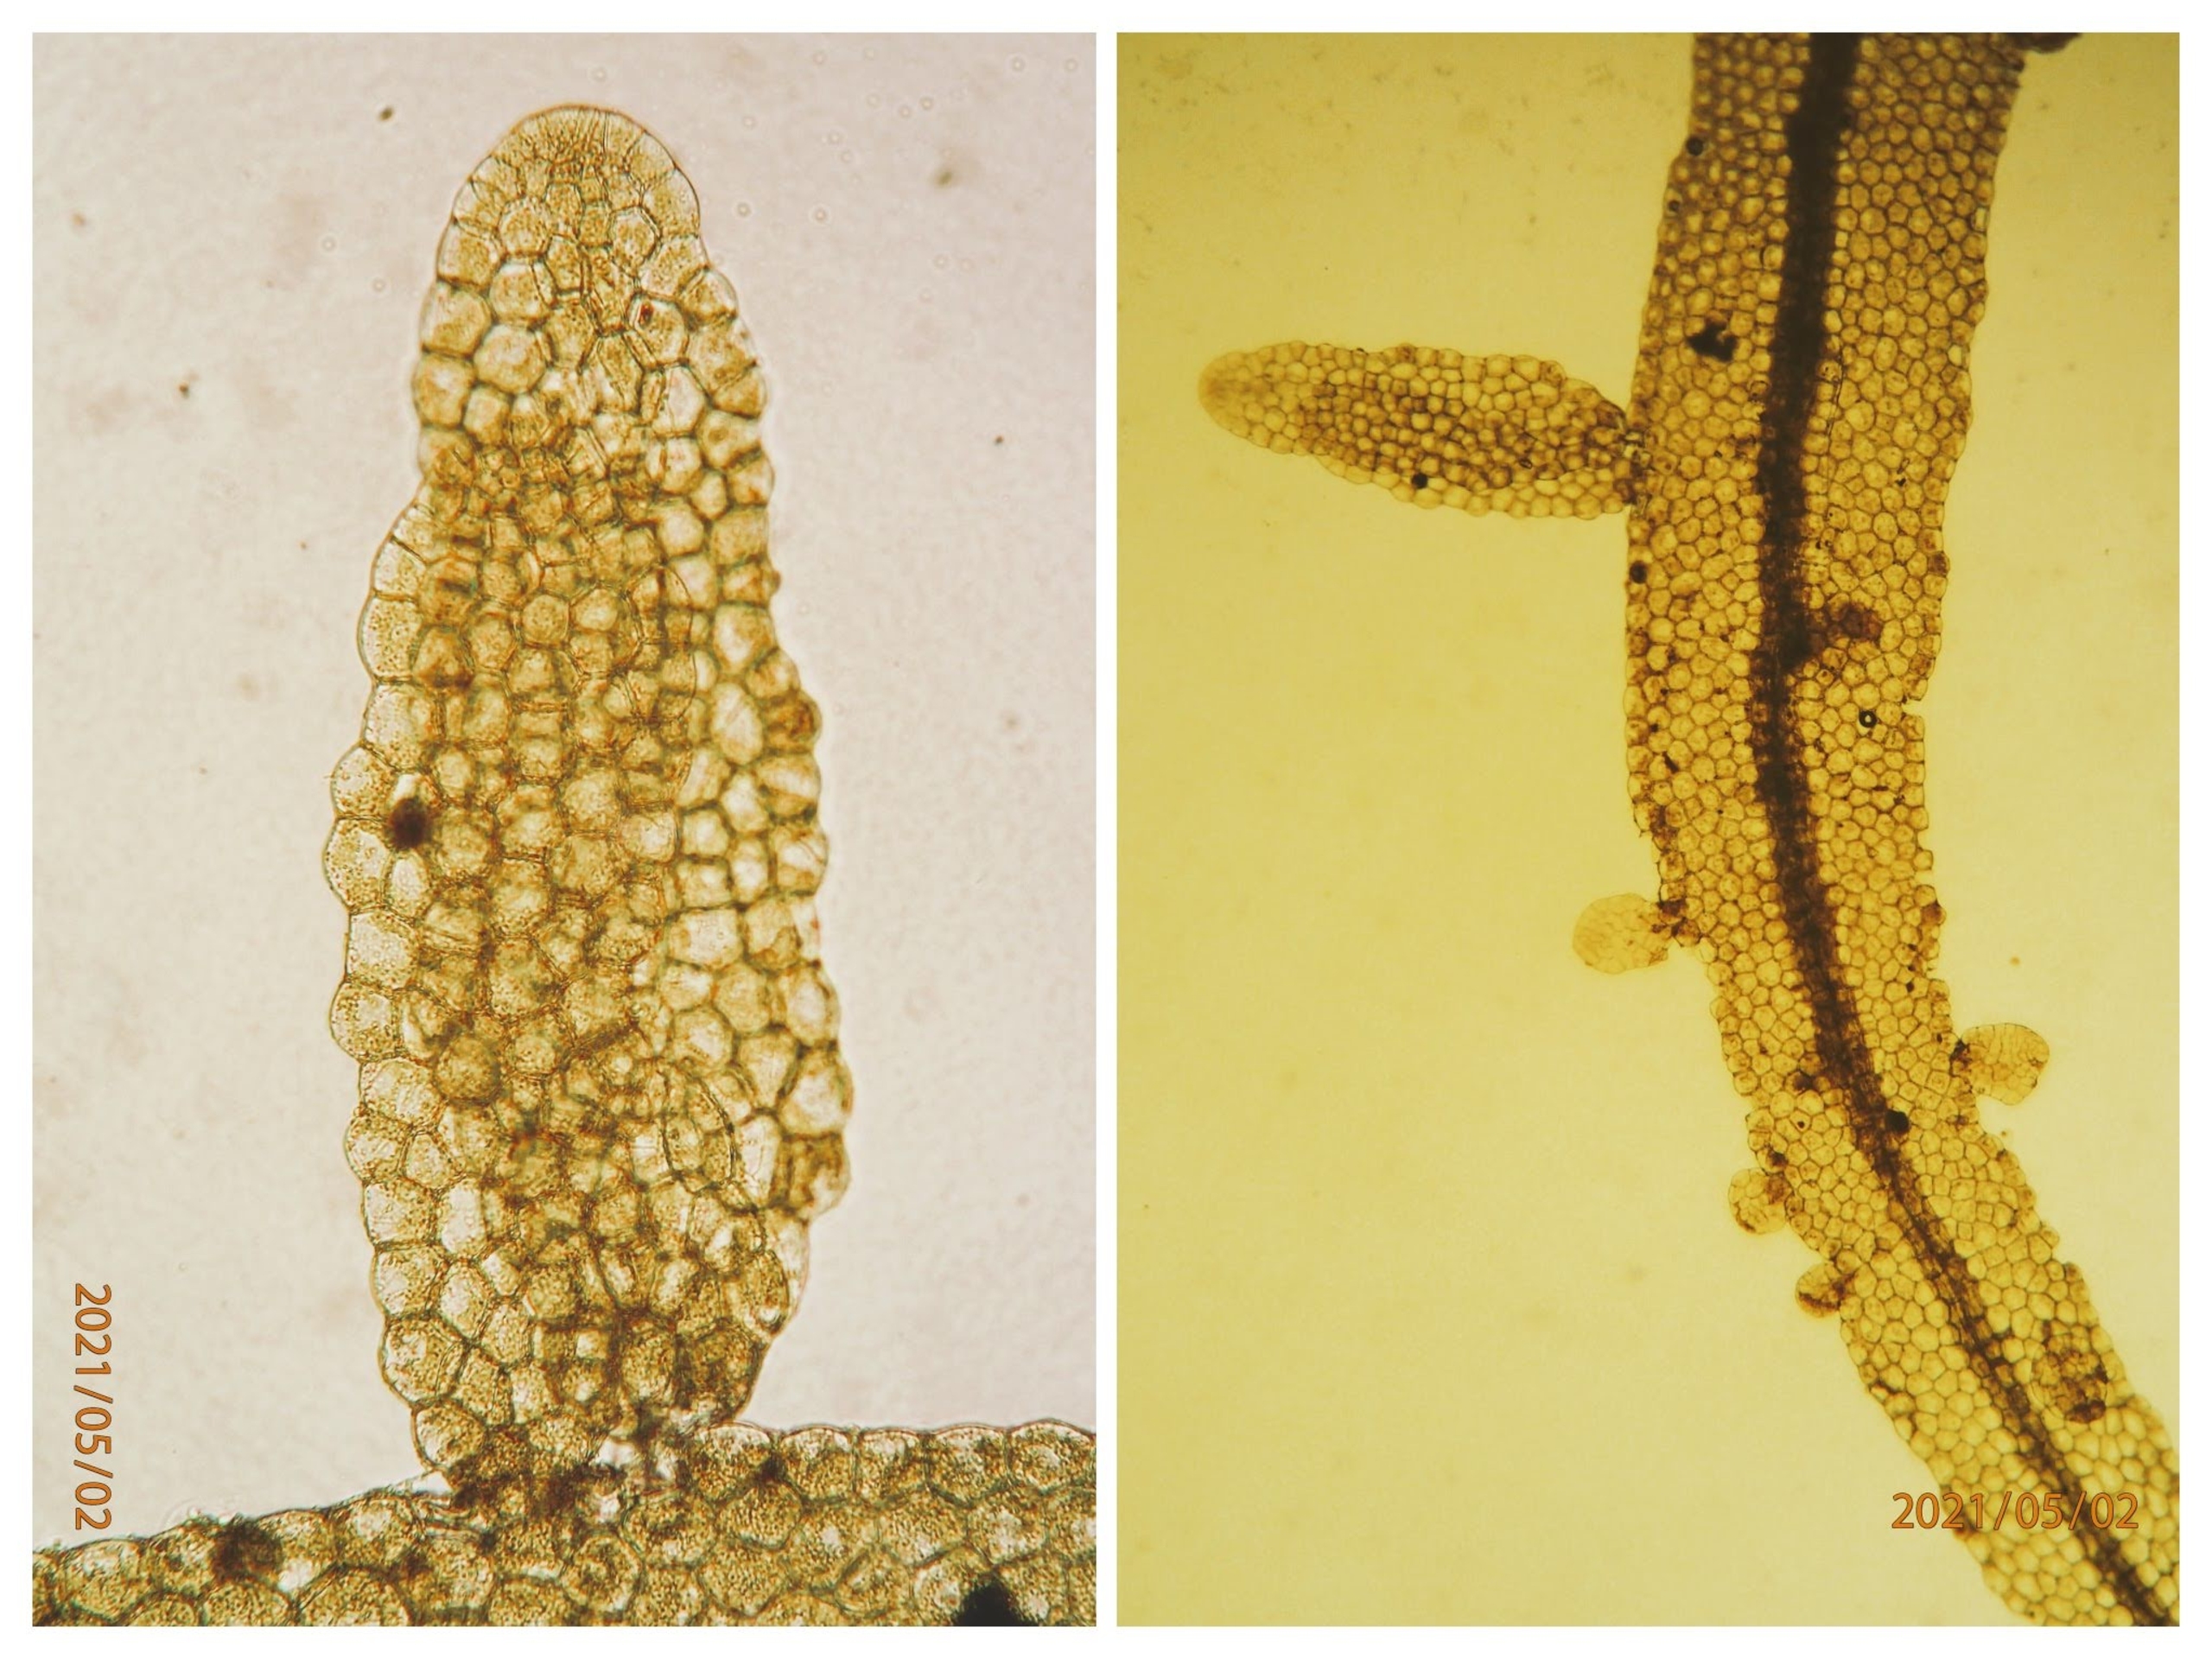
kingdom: Plantae
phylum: Marchantiophyta
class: Jungermanniopsida
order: Metzgeriales
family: Metzgeriaceae
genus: Metzgeria
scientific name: Metzgeria furcata
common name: Almindelig gaffelløv
